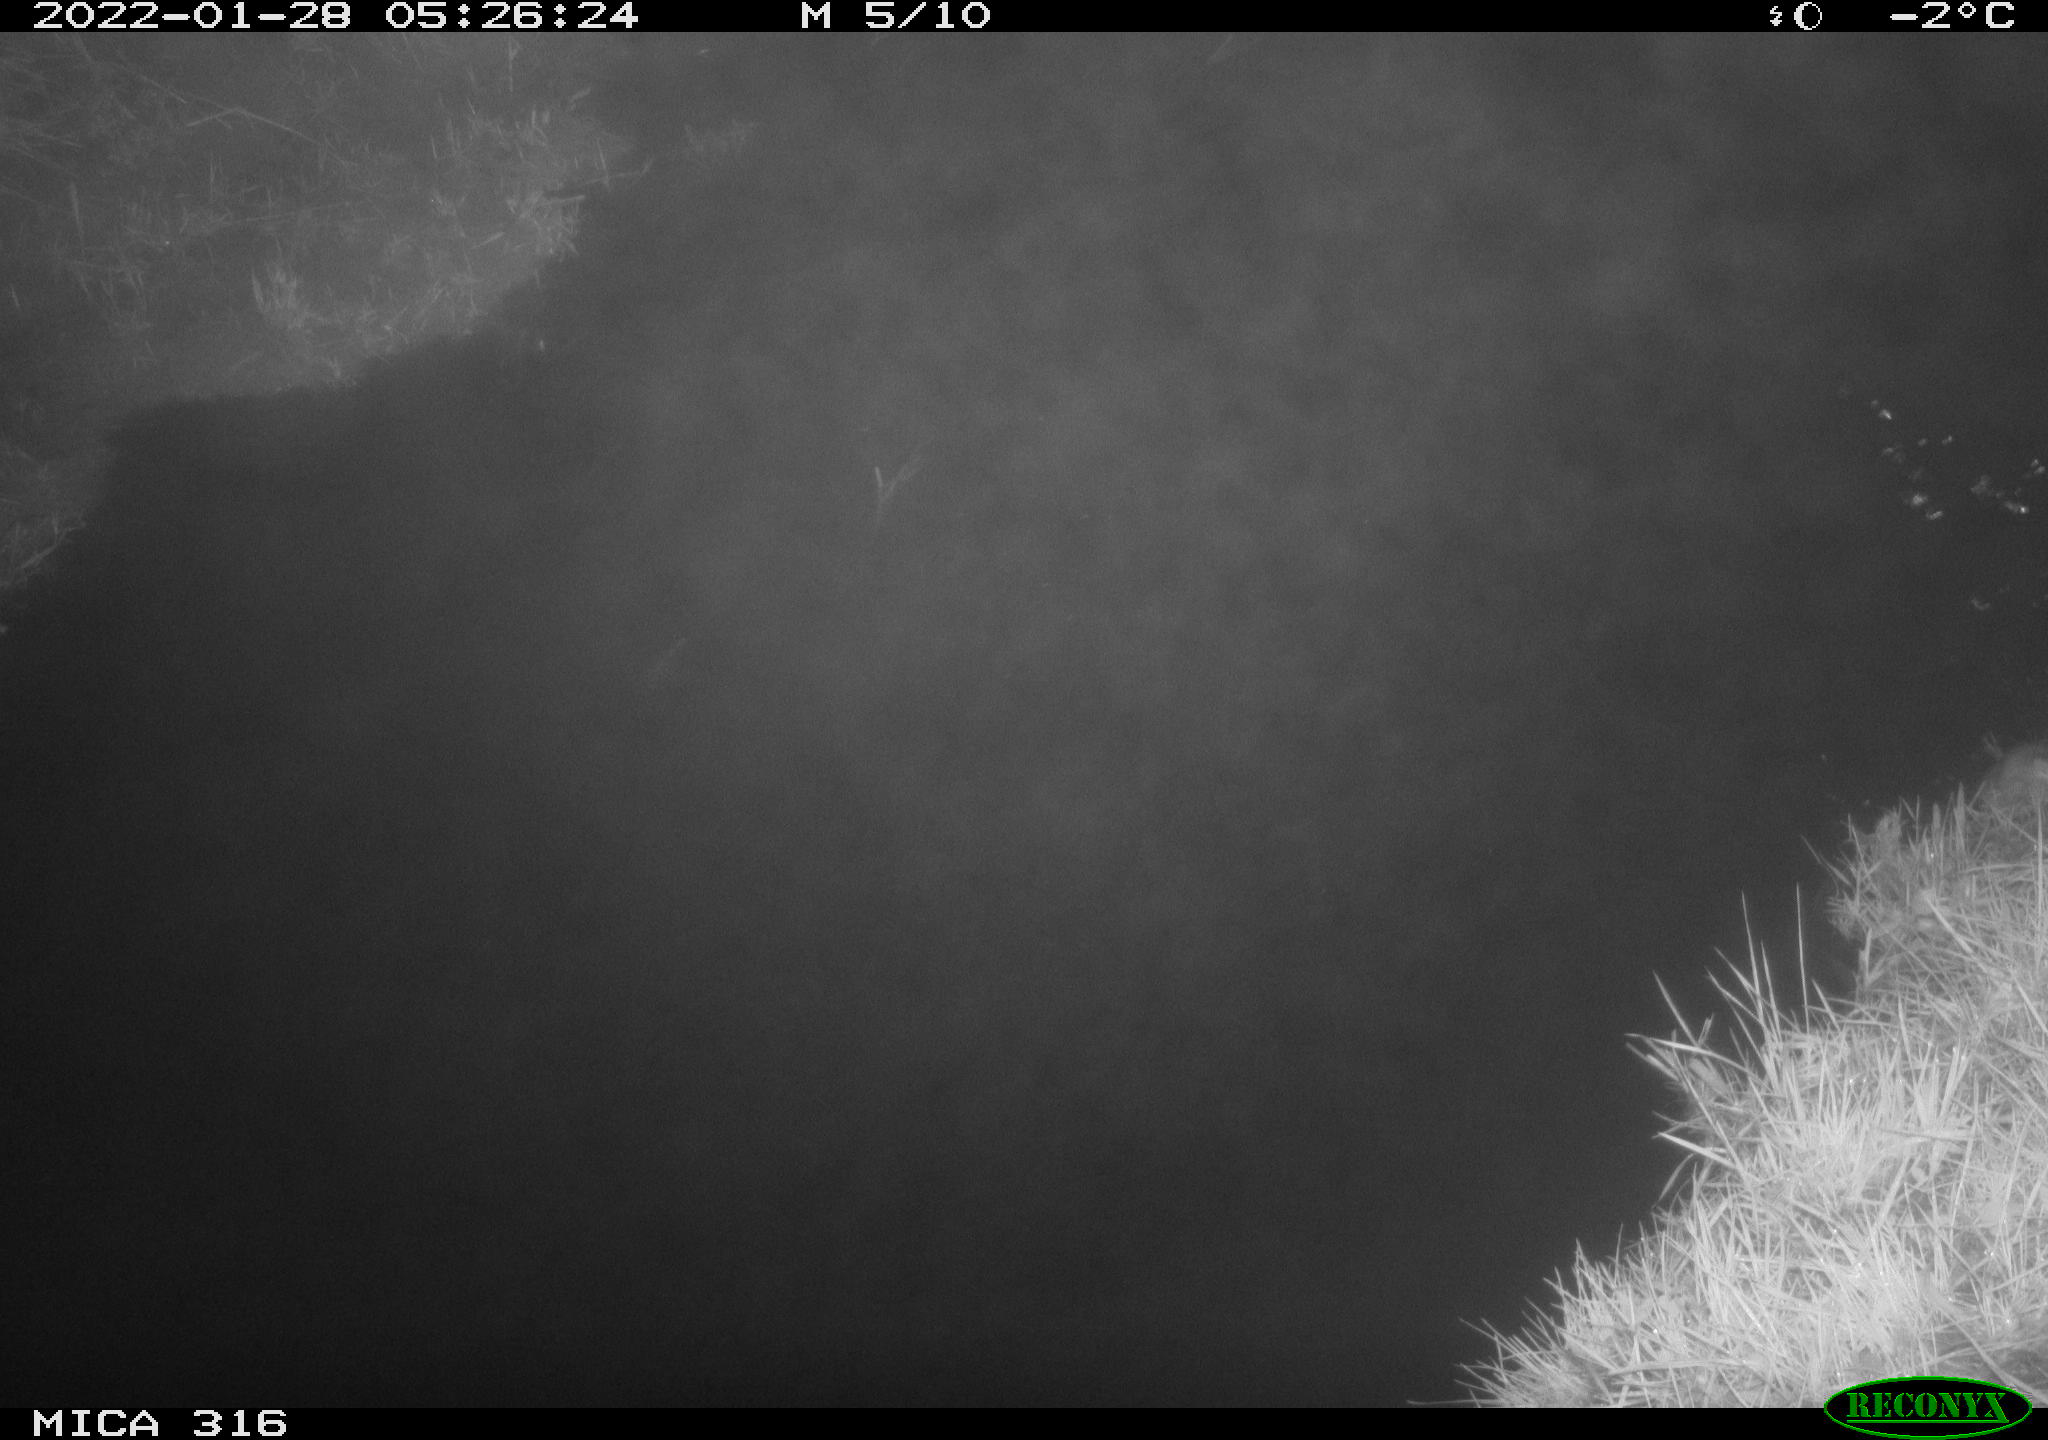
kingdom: Animalia
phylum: Chordata
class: Mammalia
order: Rodentia
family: Muridae
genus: Rattus
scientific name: Rattus norvegicus
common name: Brown rat
